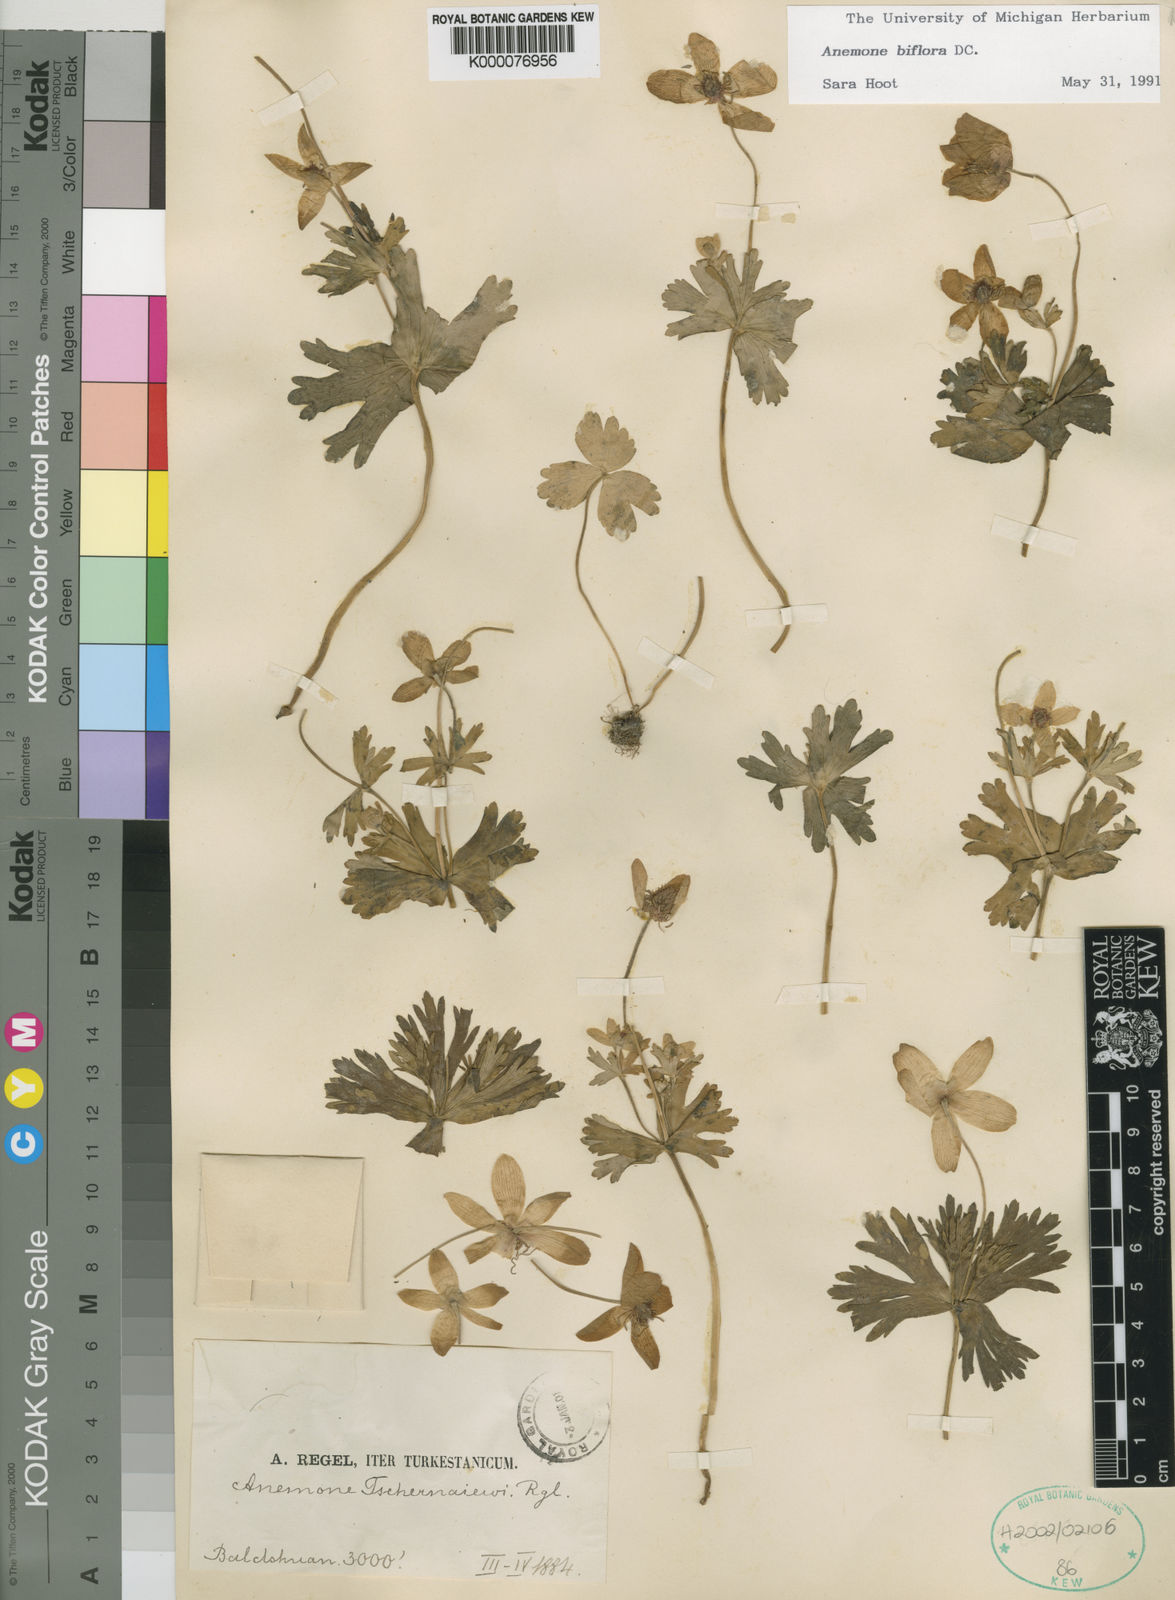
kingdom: Plantae
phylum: Tracheophyta
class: Magnoliopsida
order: Ranunculales
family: Ranunculaceae
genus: Anemone
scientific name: Anemone biflora
